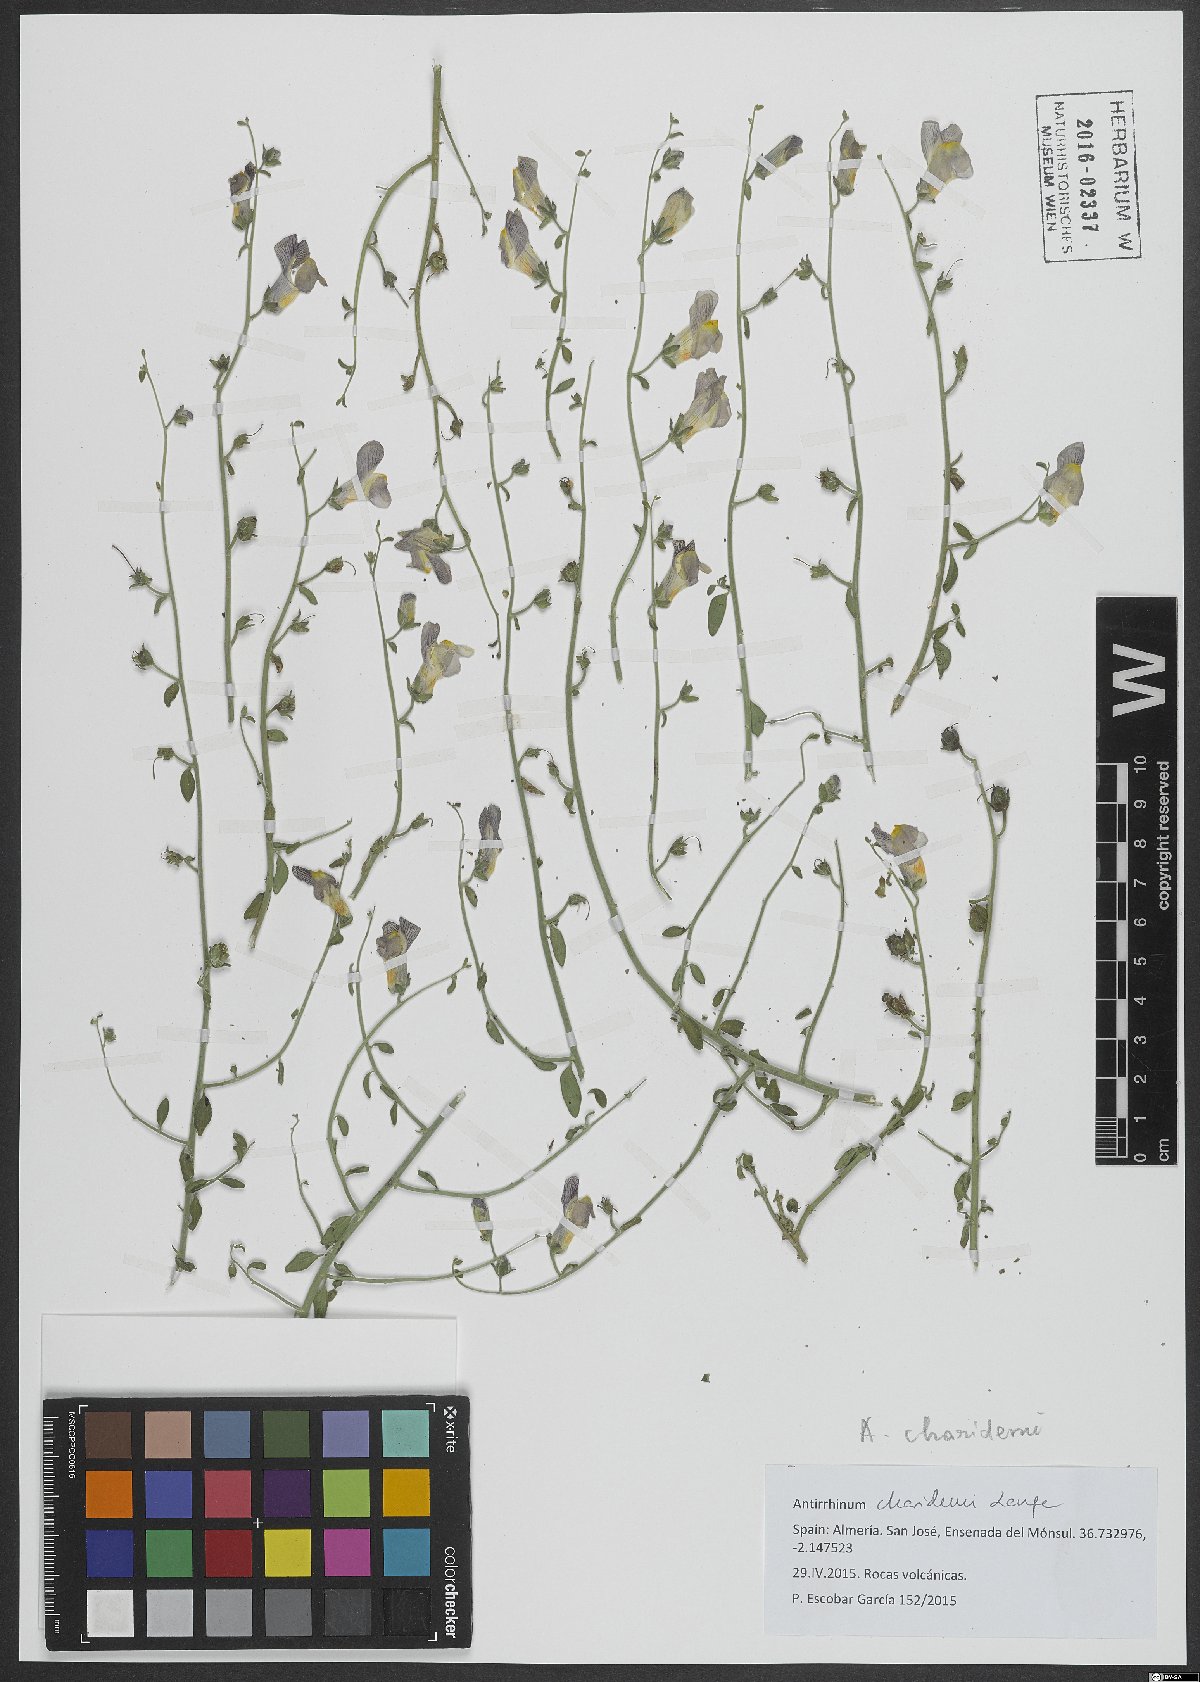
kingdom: Plantae
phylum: Tracheophyta
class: Magnoliopsida
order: Lamiales
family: Plantaginaceae
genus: Antirrhinum
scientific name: Antirrhinum charidemi
